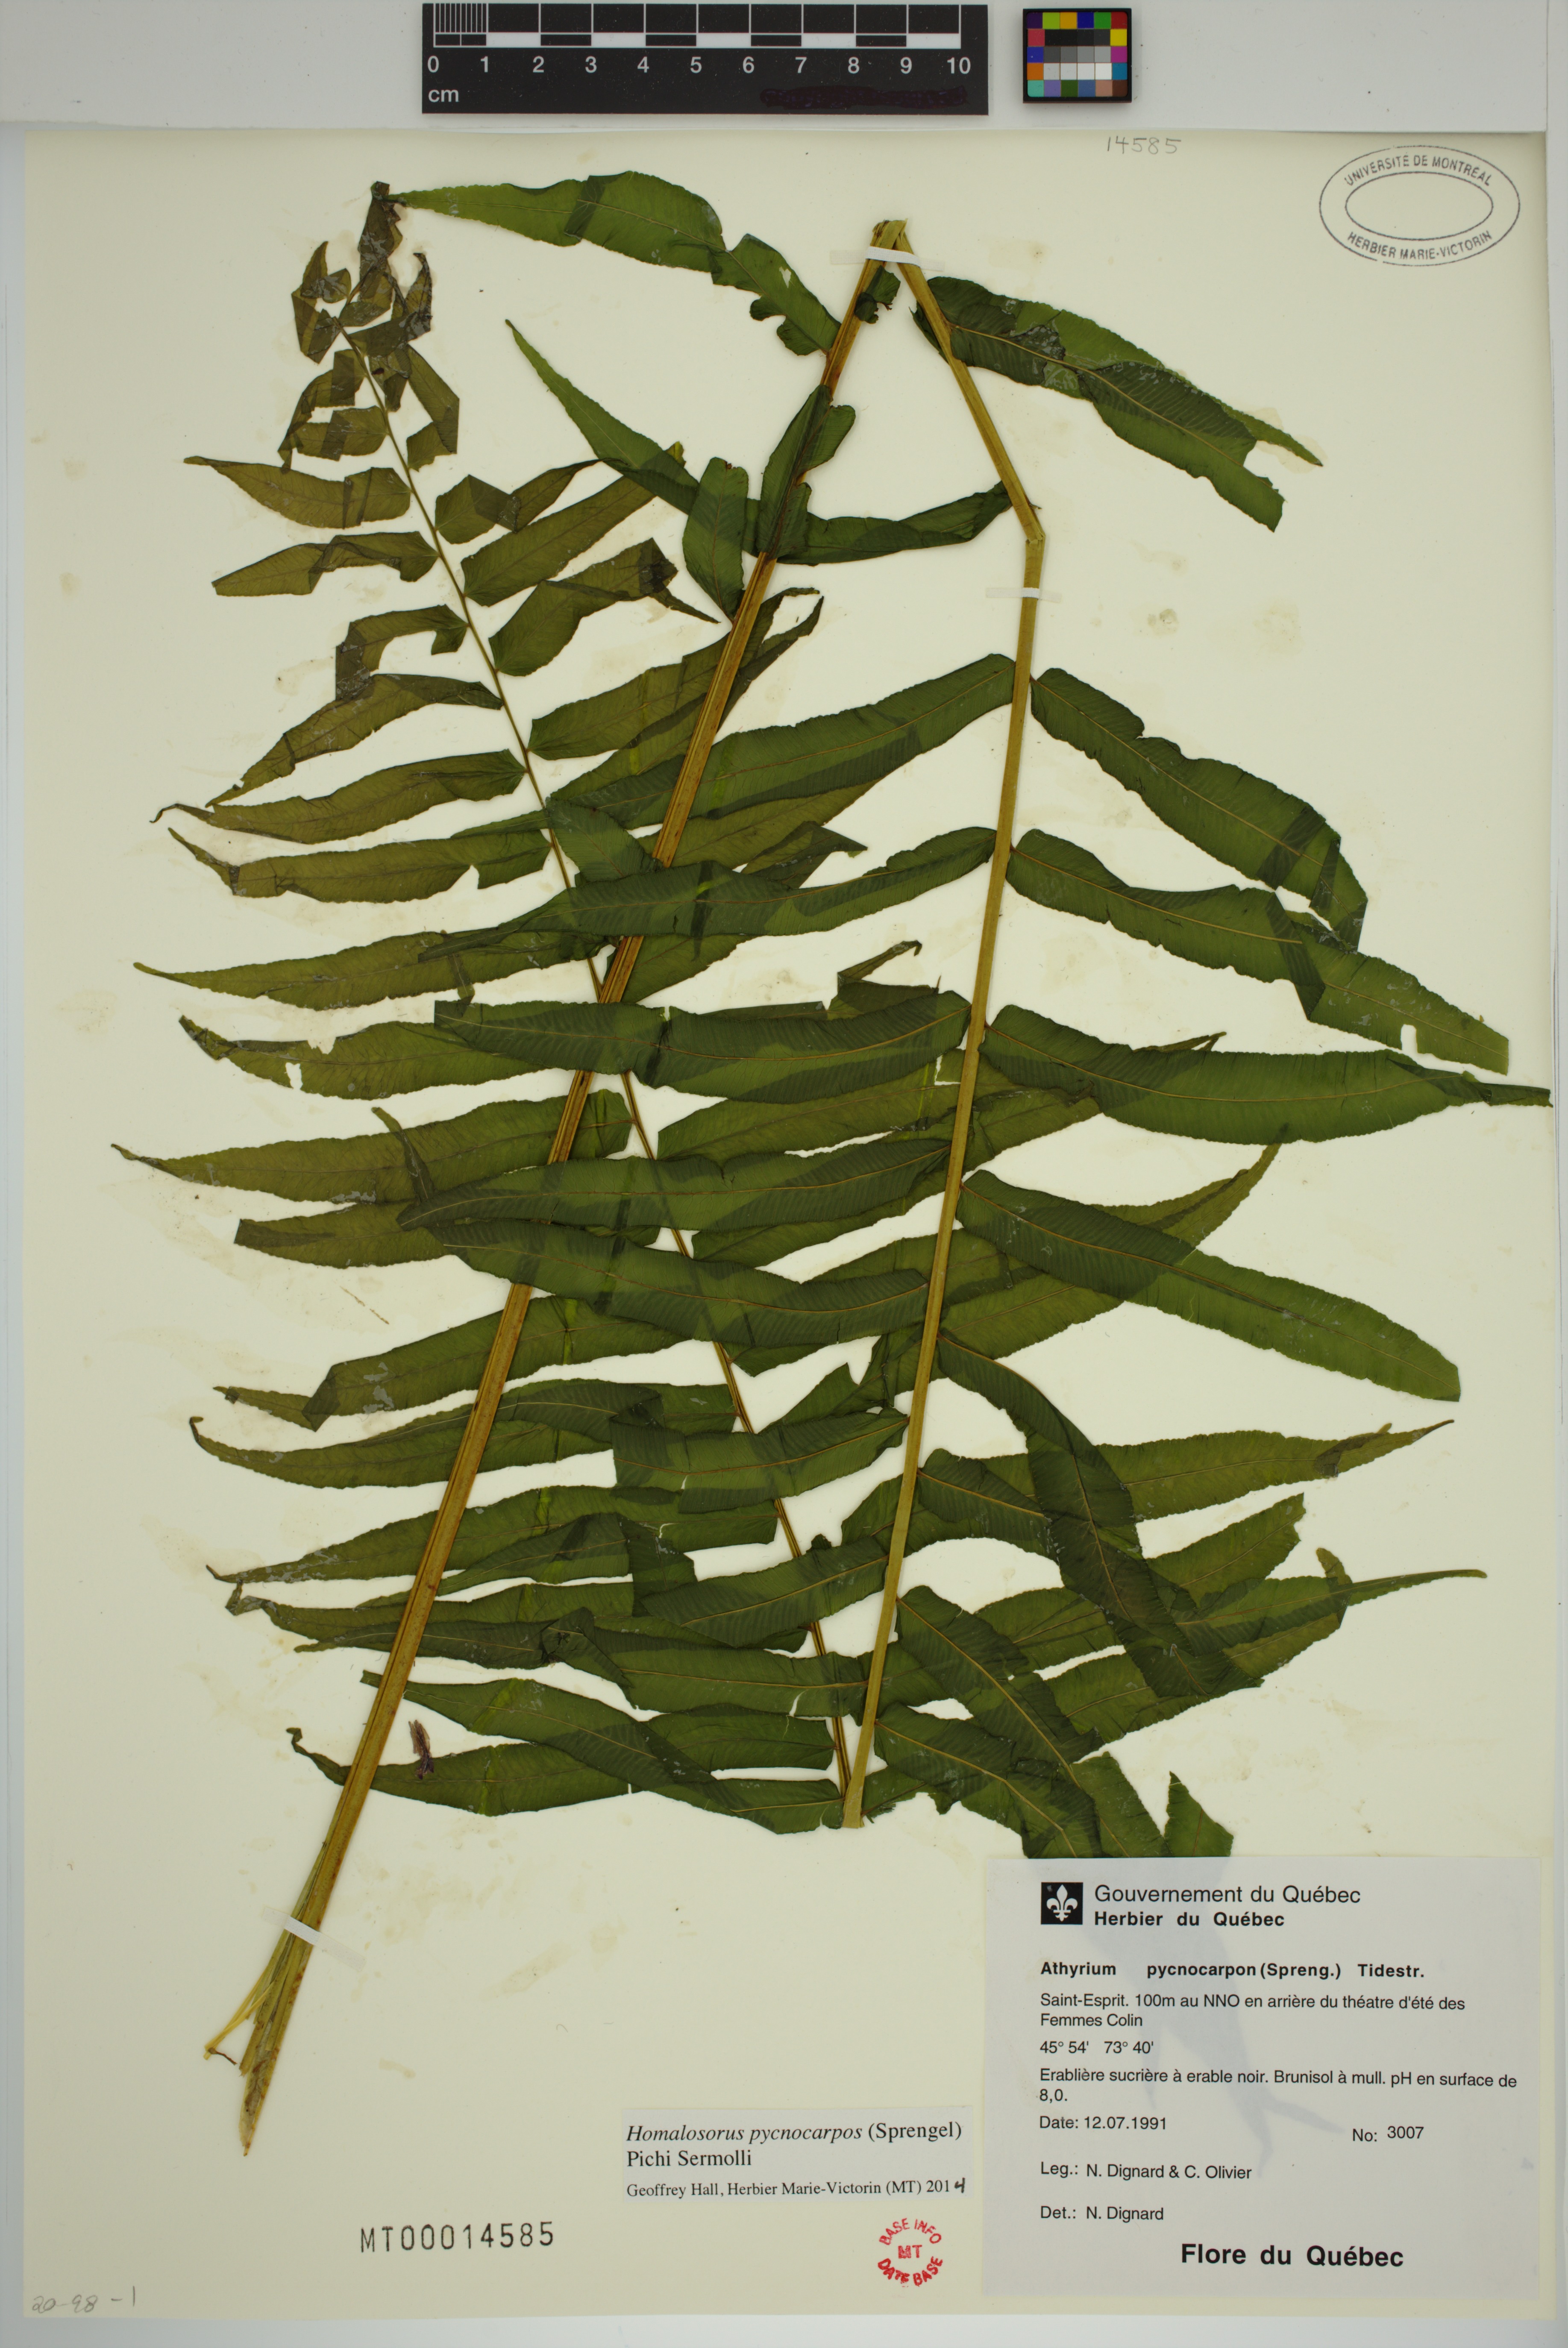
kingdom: Plantae
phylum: Tracheophyta
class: Polypodiopsida
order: Polypodiales
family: Diplaziopsidaceae
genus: Homalosorus
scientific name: Homalosorus pycnocarpos
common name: Glade fern
